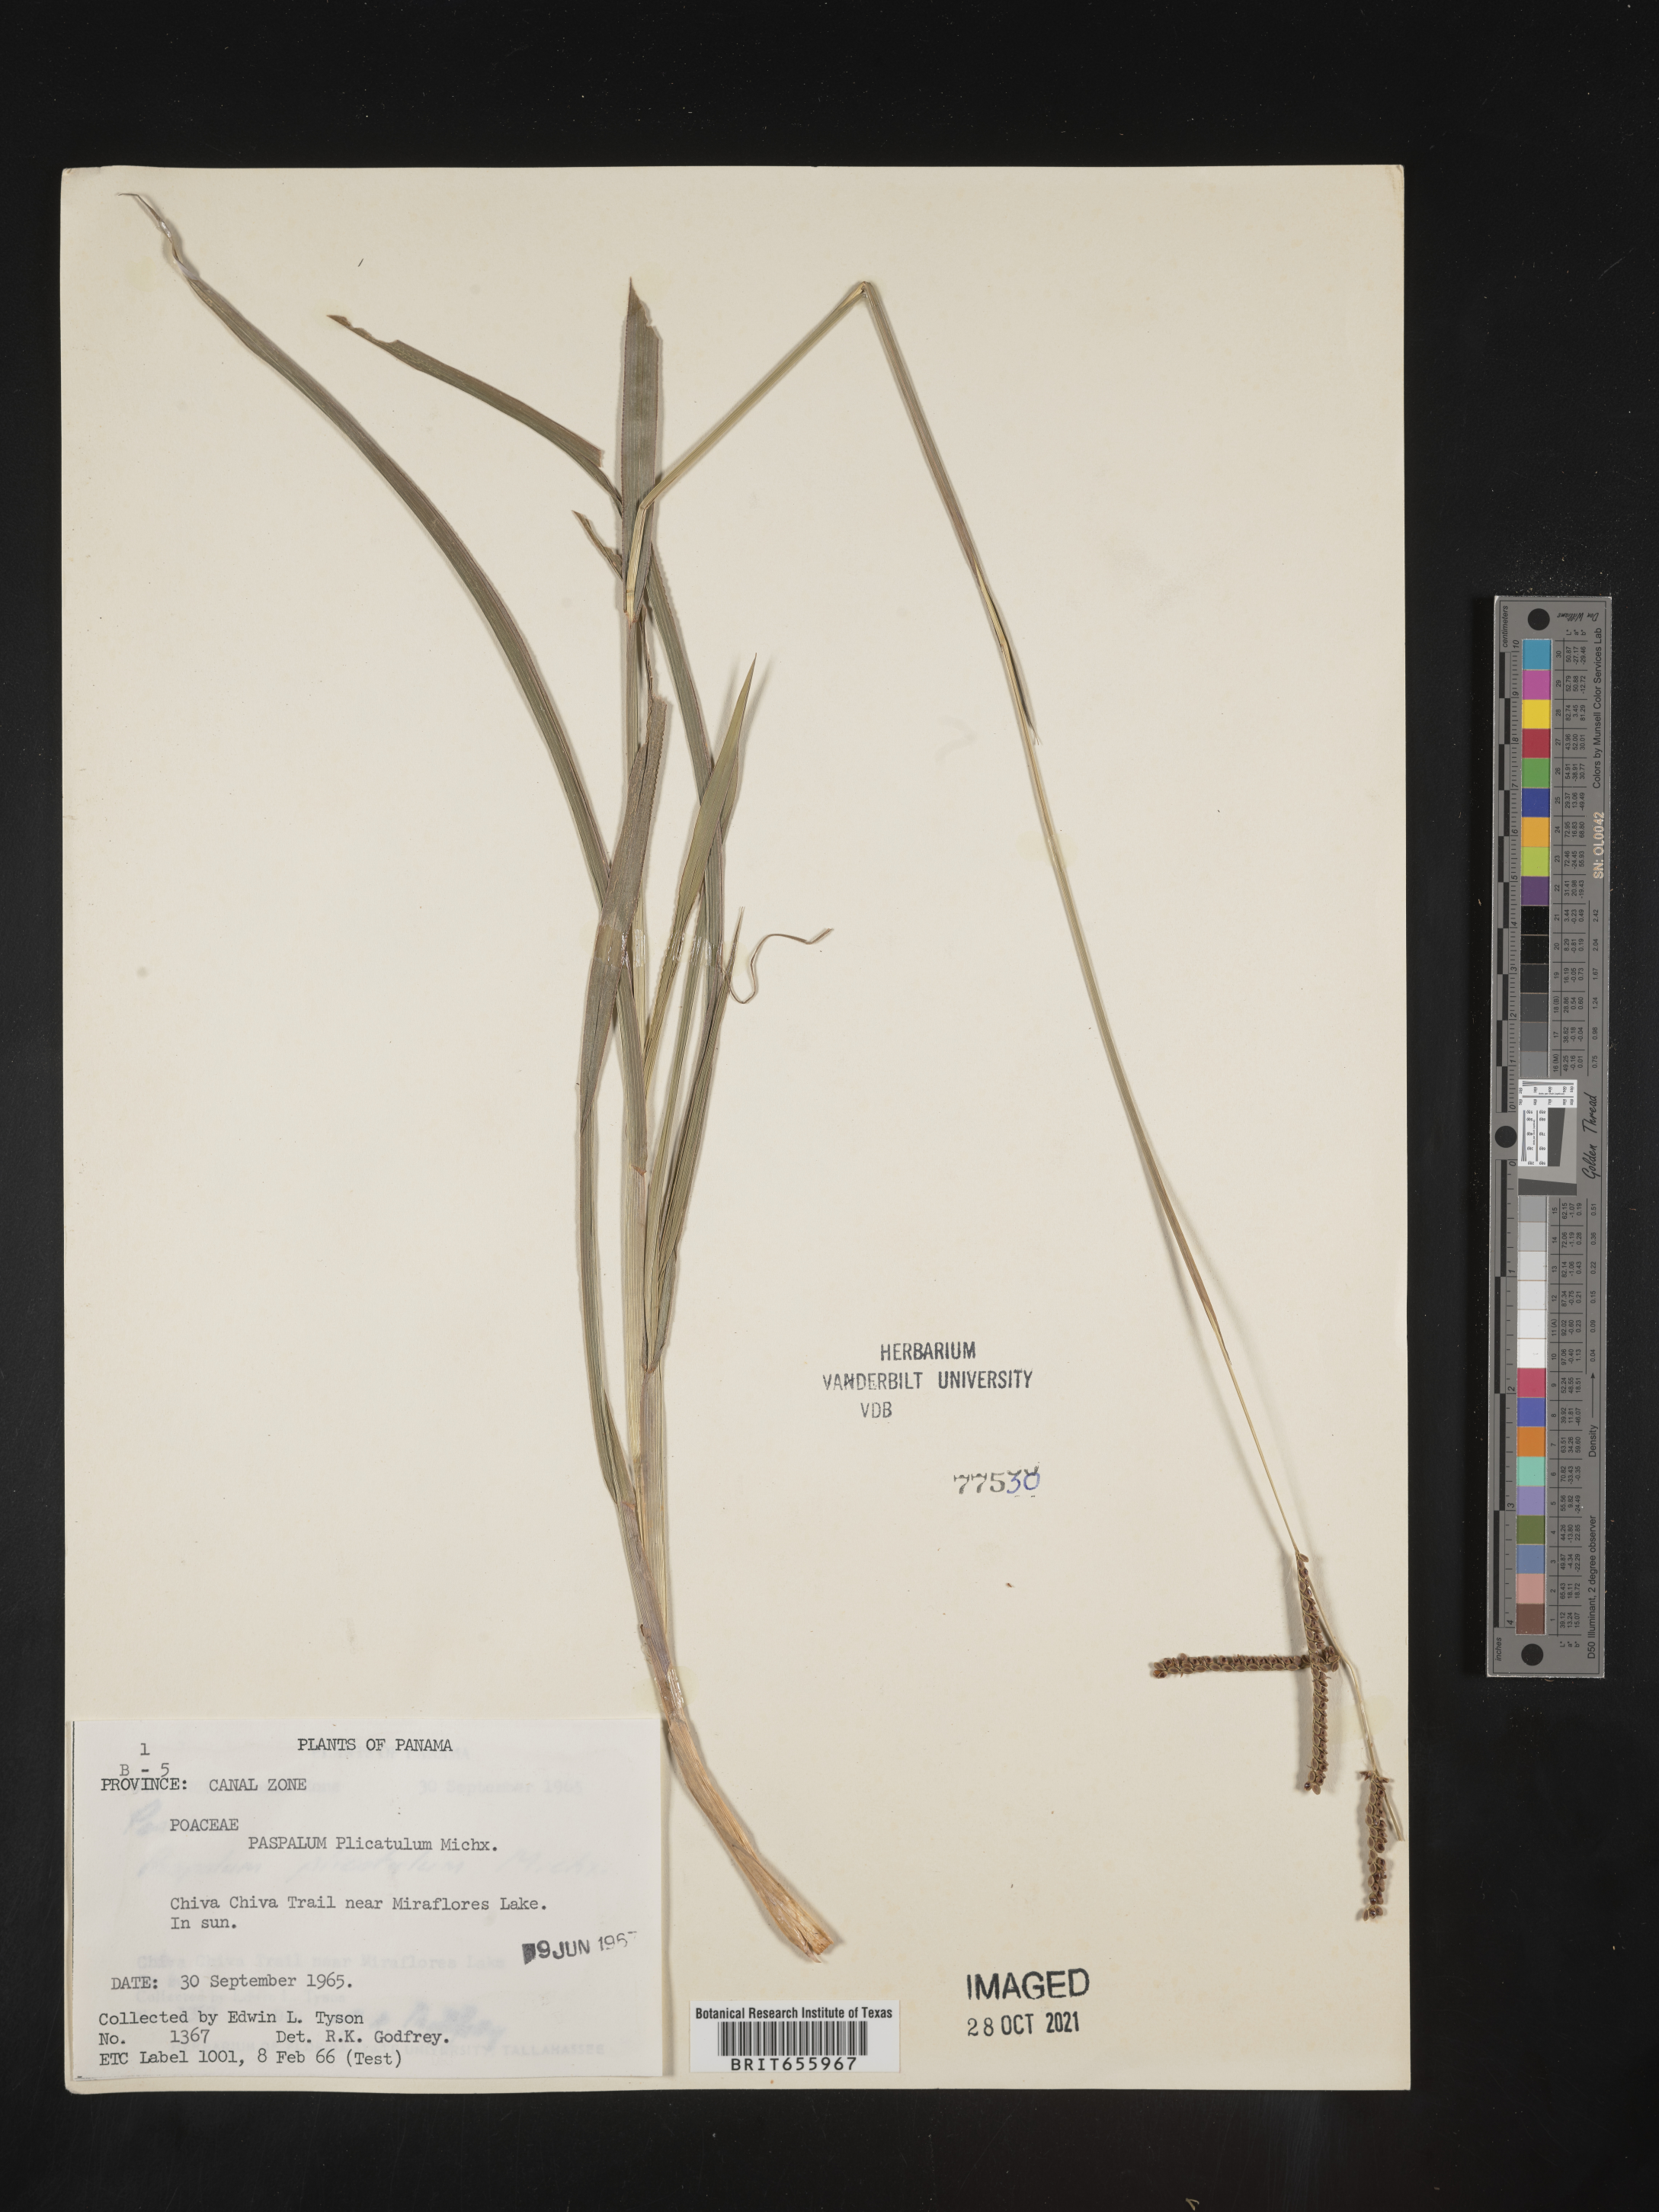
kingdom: Plantae
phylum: Tracheophyta
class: Liliopsida
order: Poales
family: Poaceae
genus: Paspalum
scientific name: Paspalum
